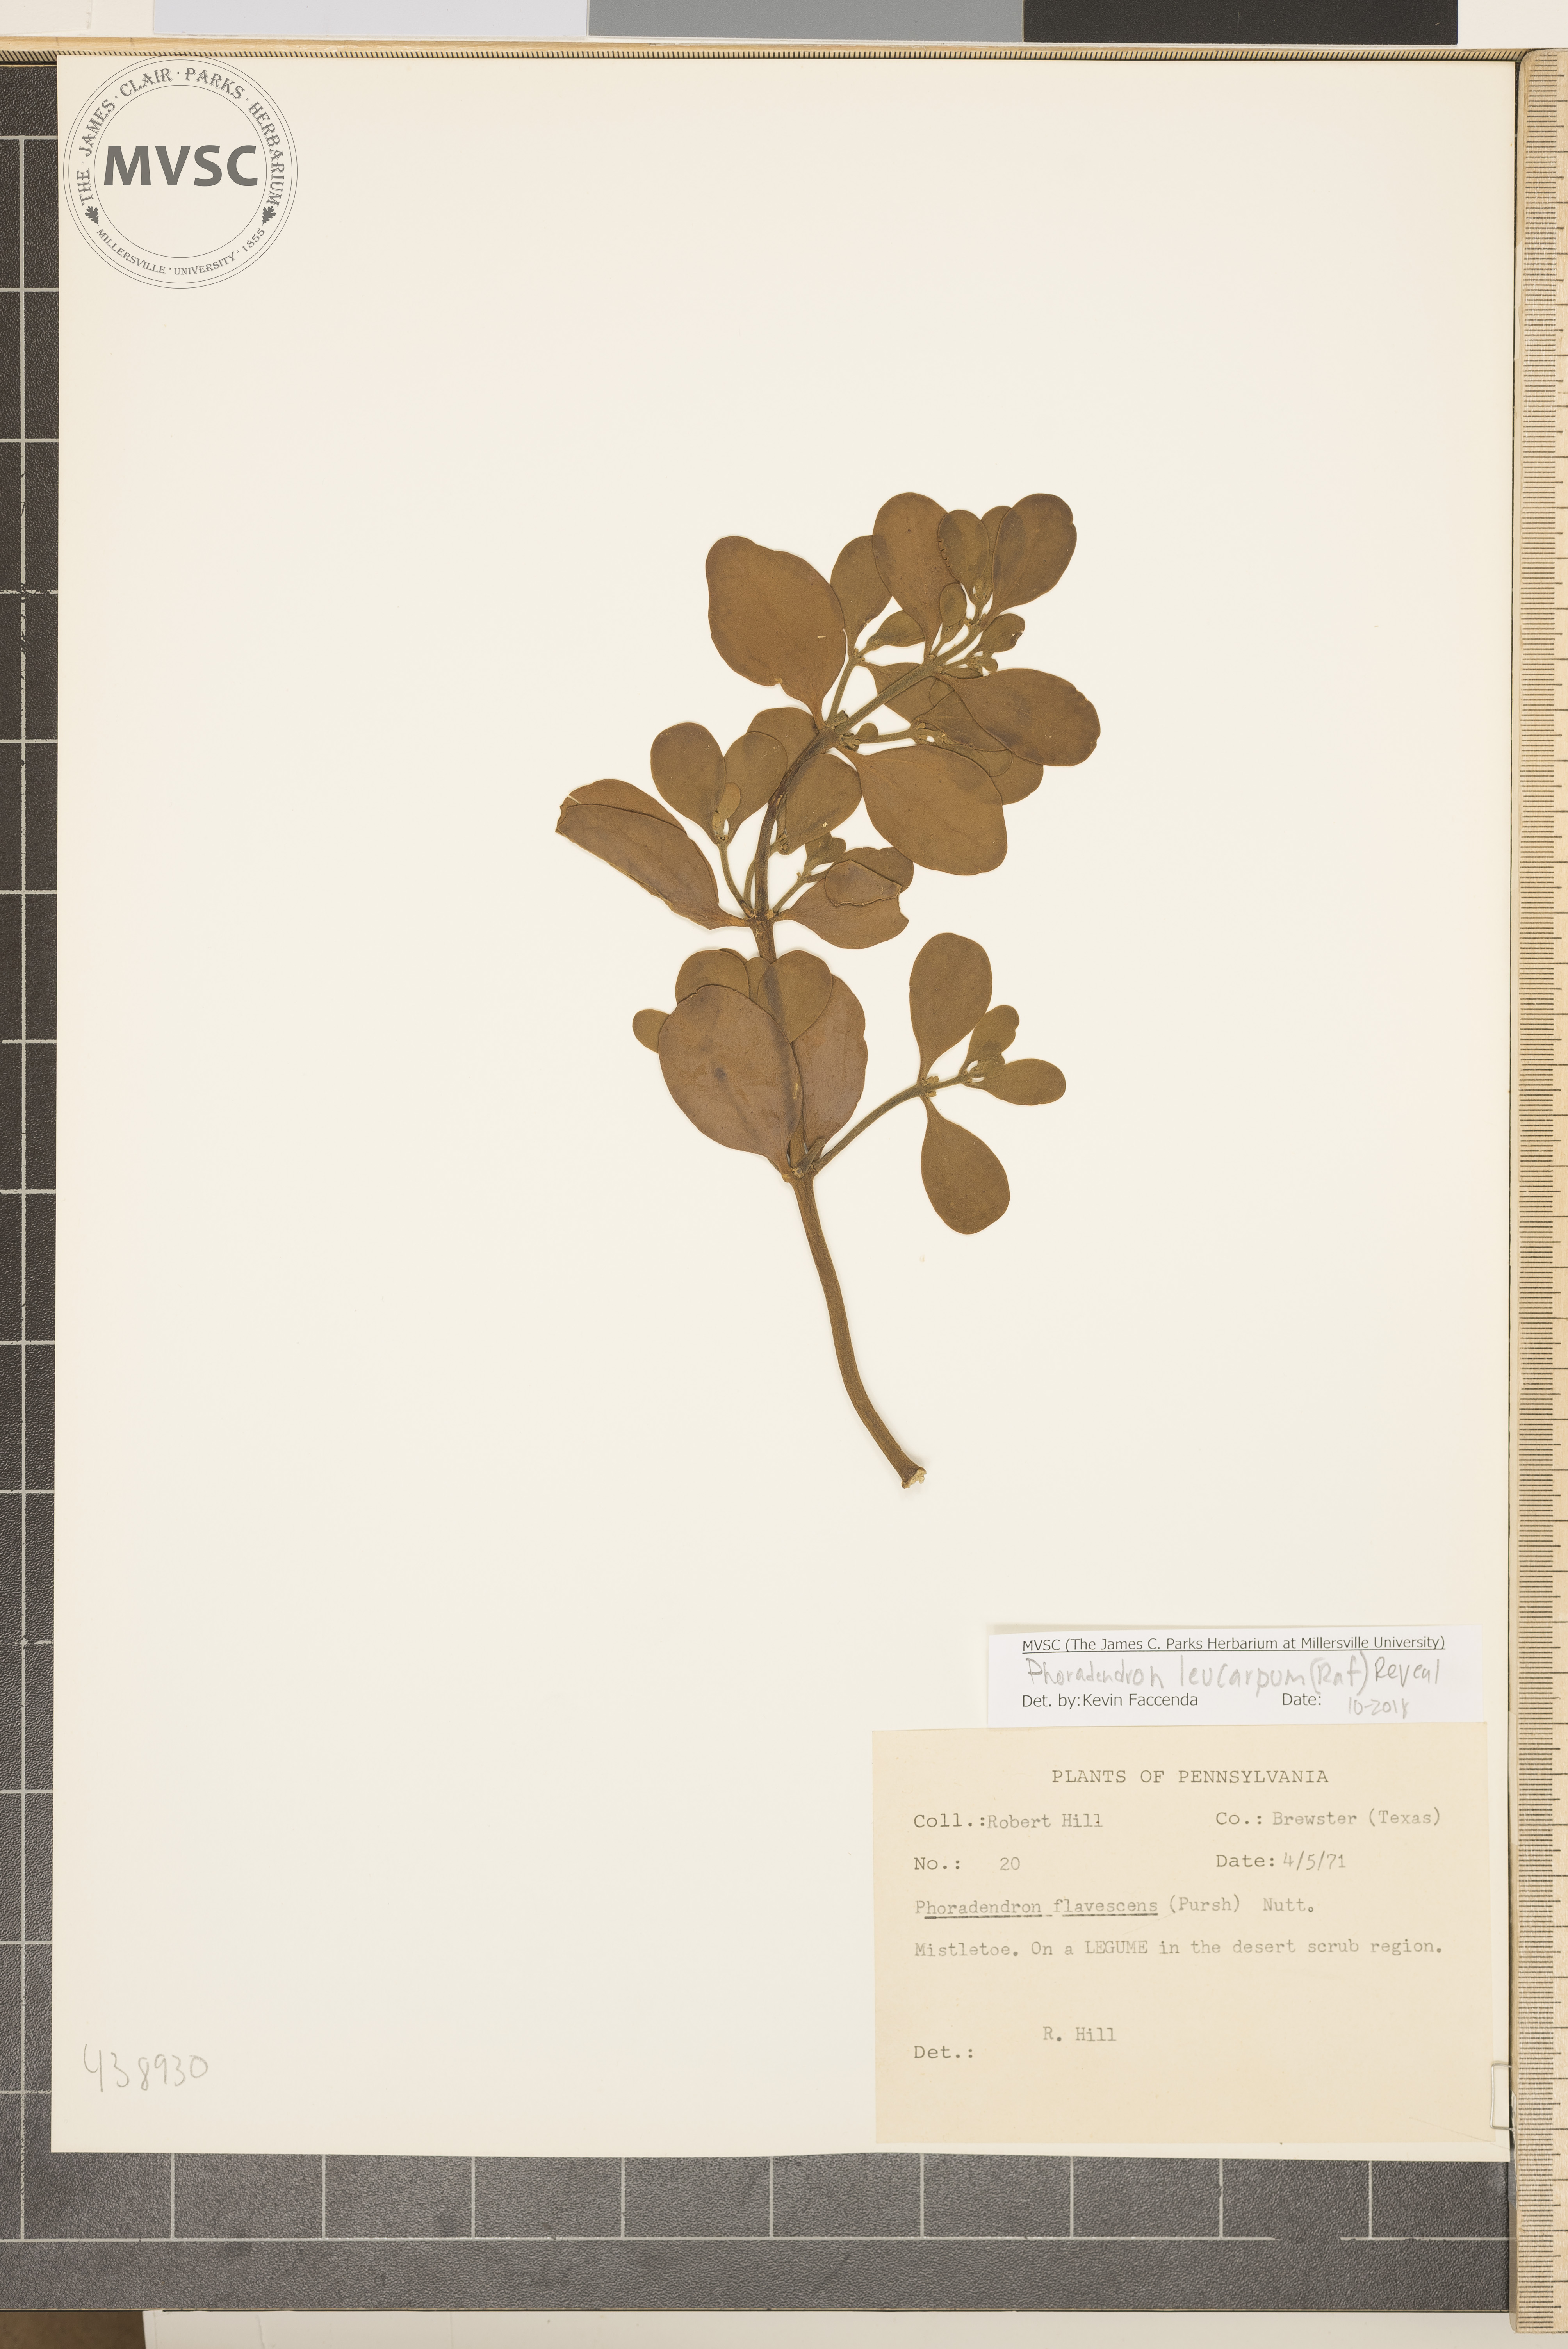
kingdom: Plantae
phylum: Tracheophyta
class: Magnoliopsida
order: Santalales
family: Viscaceae
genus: Phoradendron
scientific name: Phoradendron leucarpum
